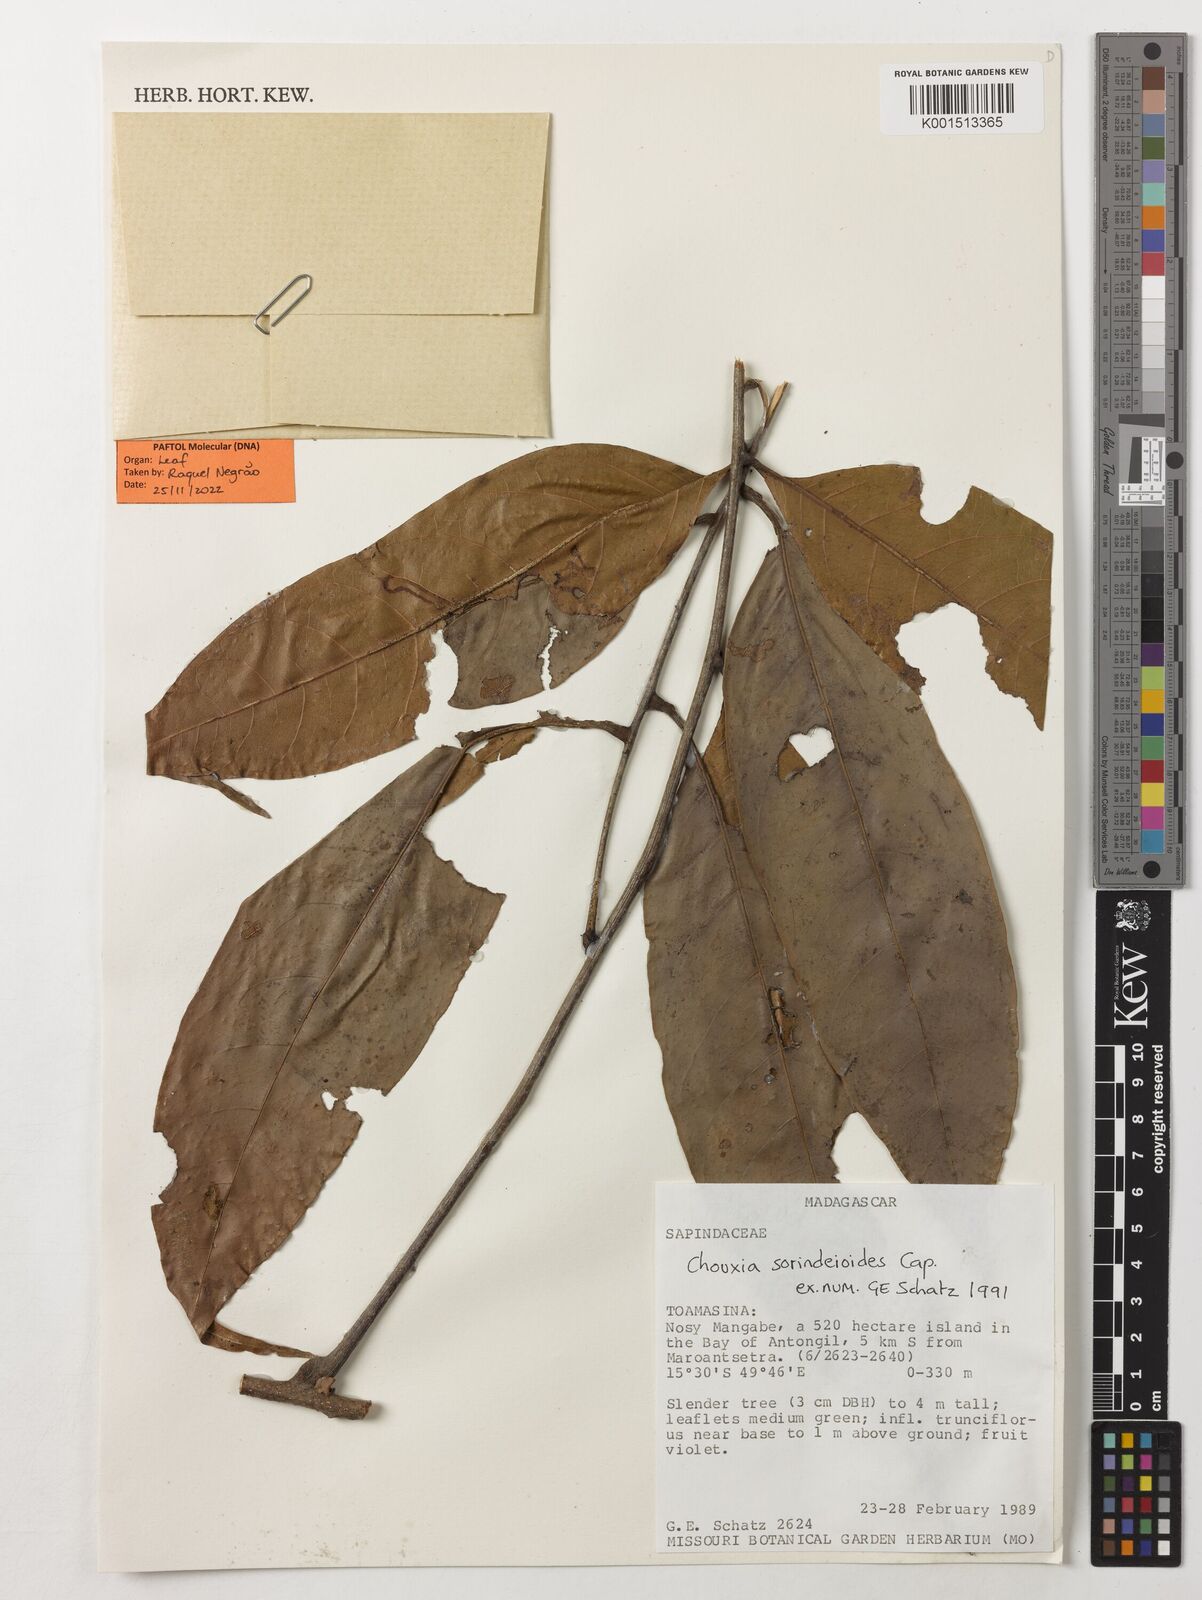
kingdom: Plantae
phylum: Tracheophyta
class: Magnoliopsida
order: Sapindales
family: Sapindaceae
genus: Chouxia
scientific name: Chouxia sorindeioides
